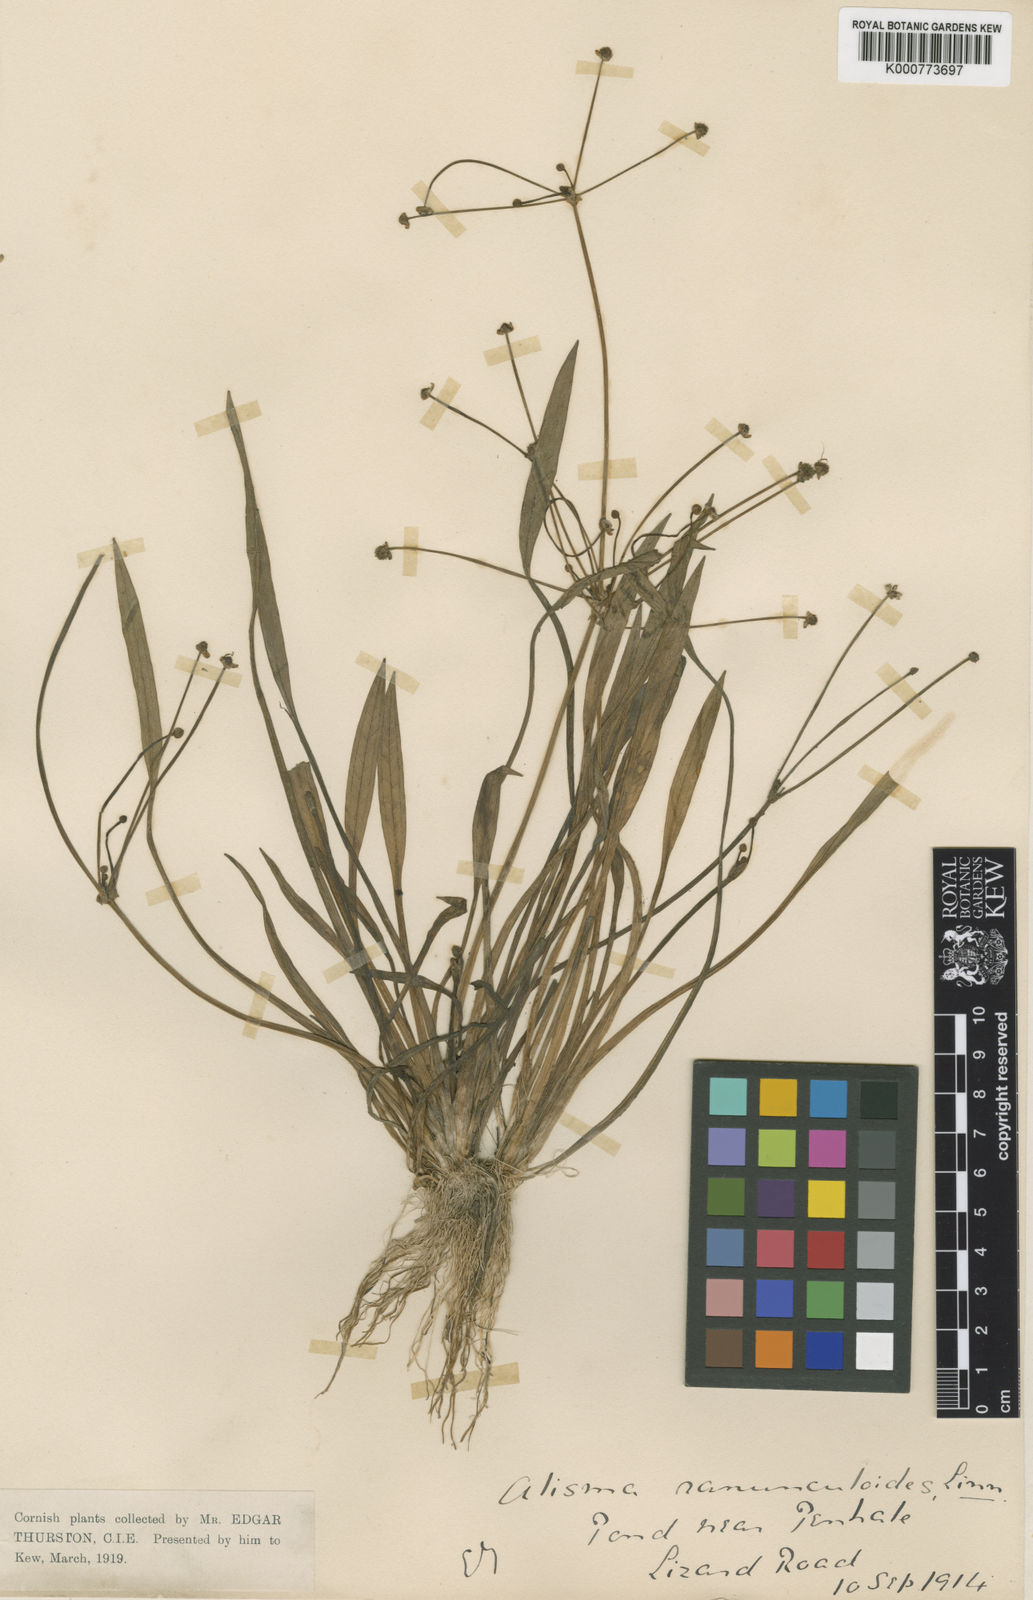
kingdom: Plantae
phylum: Tracheophyta
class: Liliopsida
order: Alismatales
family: Alismataceae
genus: Baldellia
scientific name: Baldellia ranunculoides
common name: Lesser water-plantain
